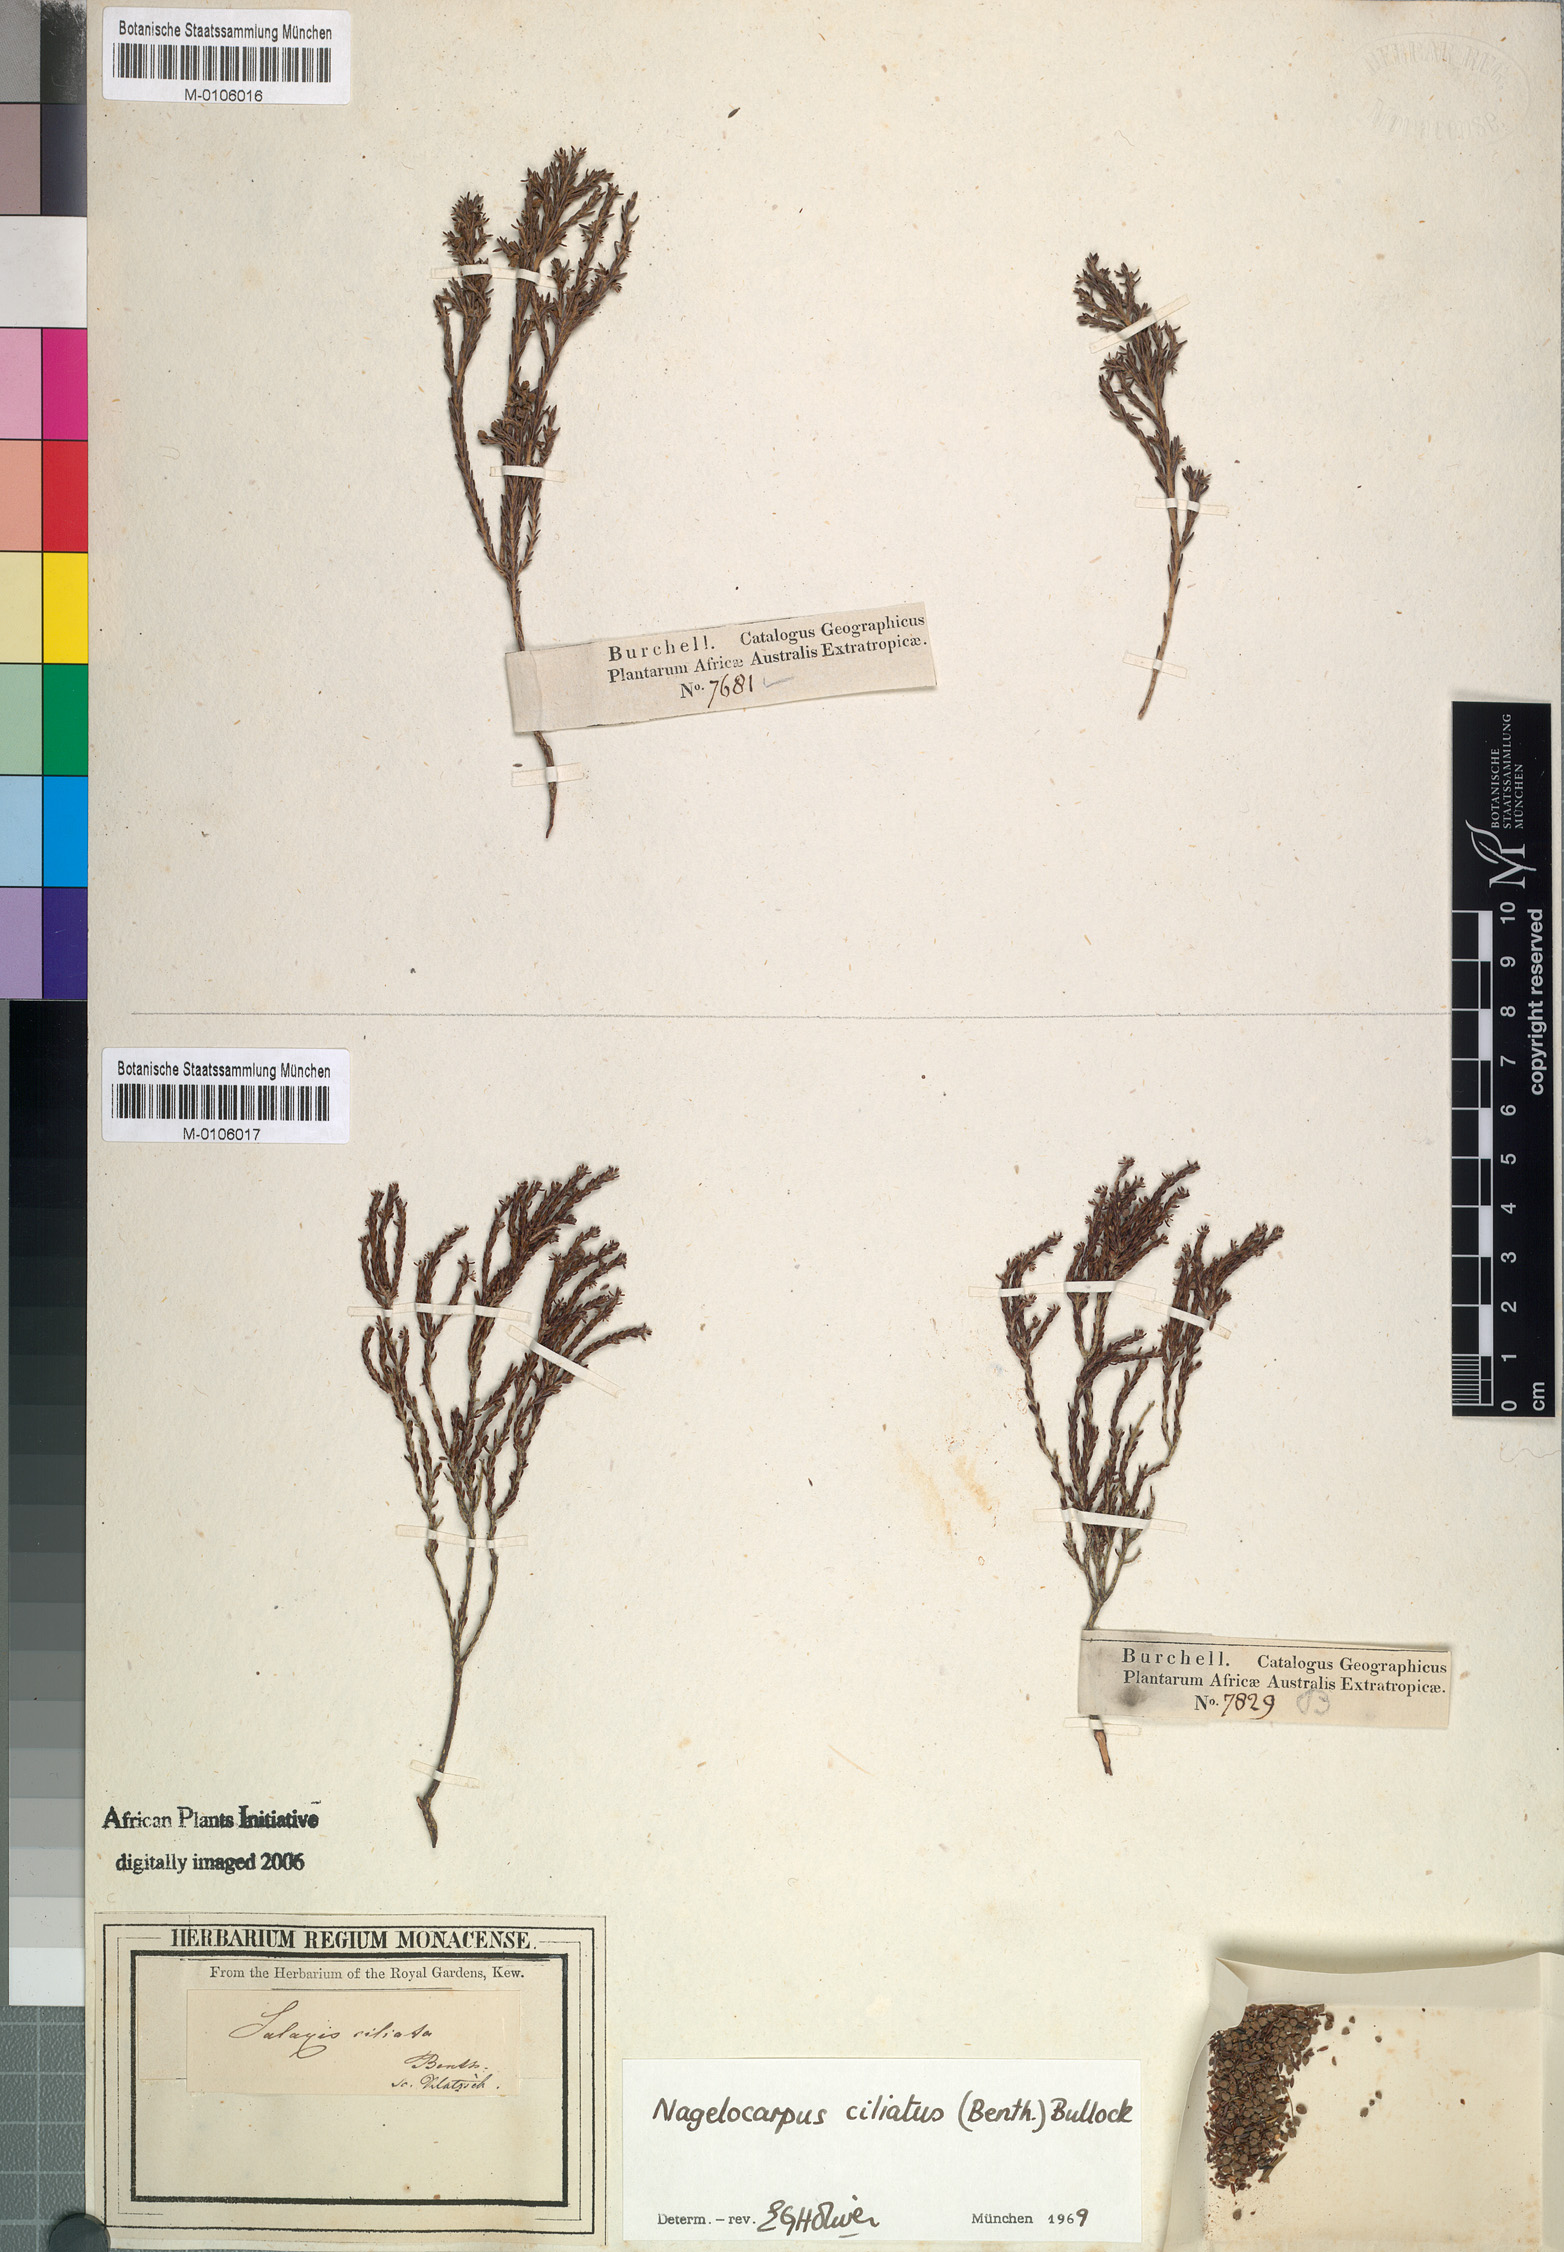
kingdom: Plantae
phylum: Tracheophyta
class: Magnoliopsida
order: Ericales
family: Ericaceae
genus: Erica
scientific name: Erica serrata
